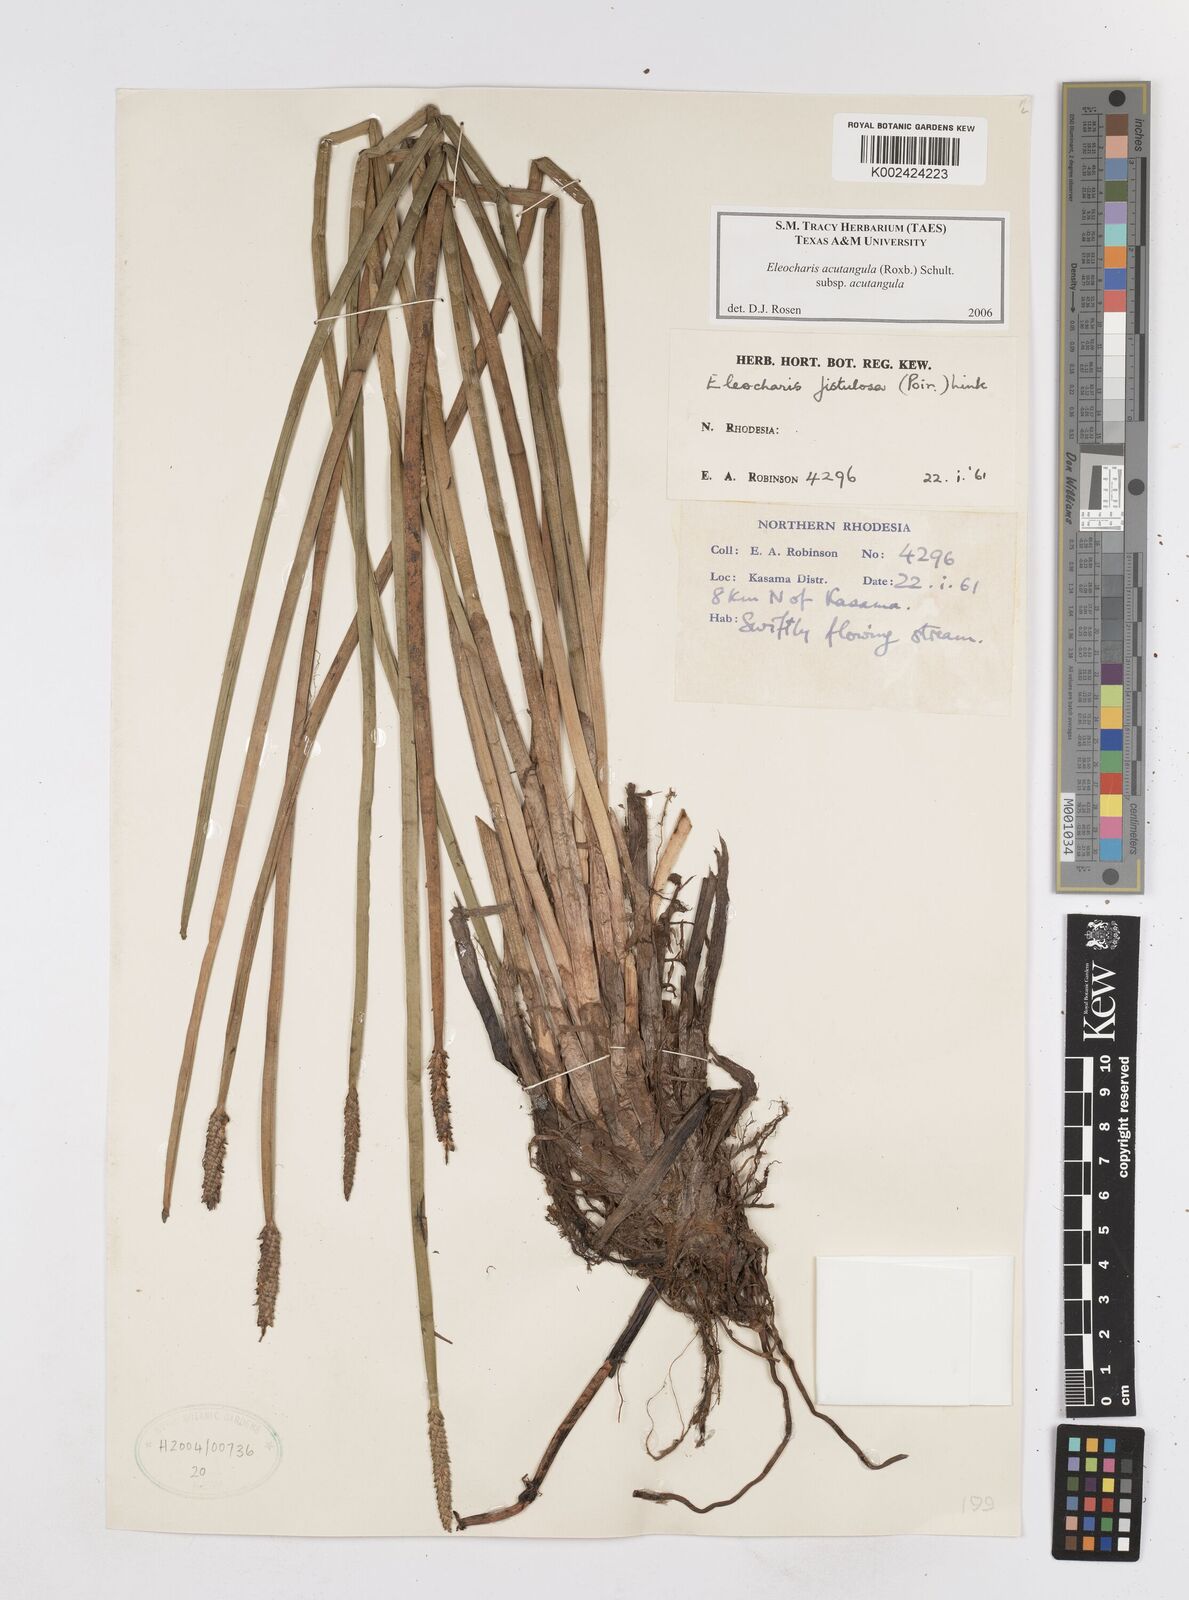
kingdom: Plantae
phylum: Tracheophyta
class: Liliopsida
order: Poales
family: Cyperaceae
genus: Eleocharis
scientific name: Eleocharis acutangula
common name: Acute spikerush
